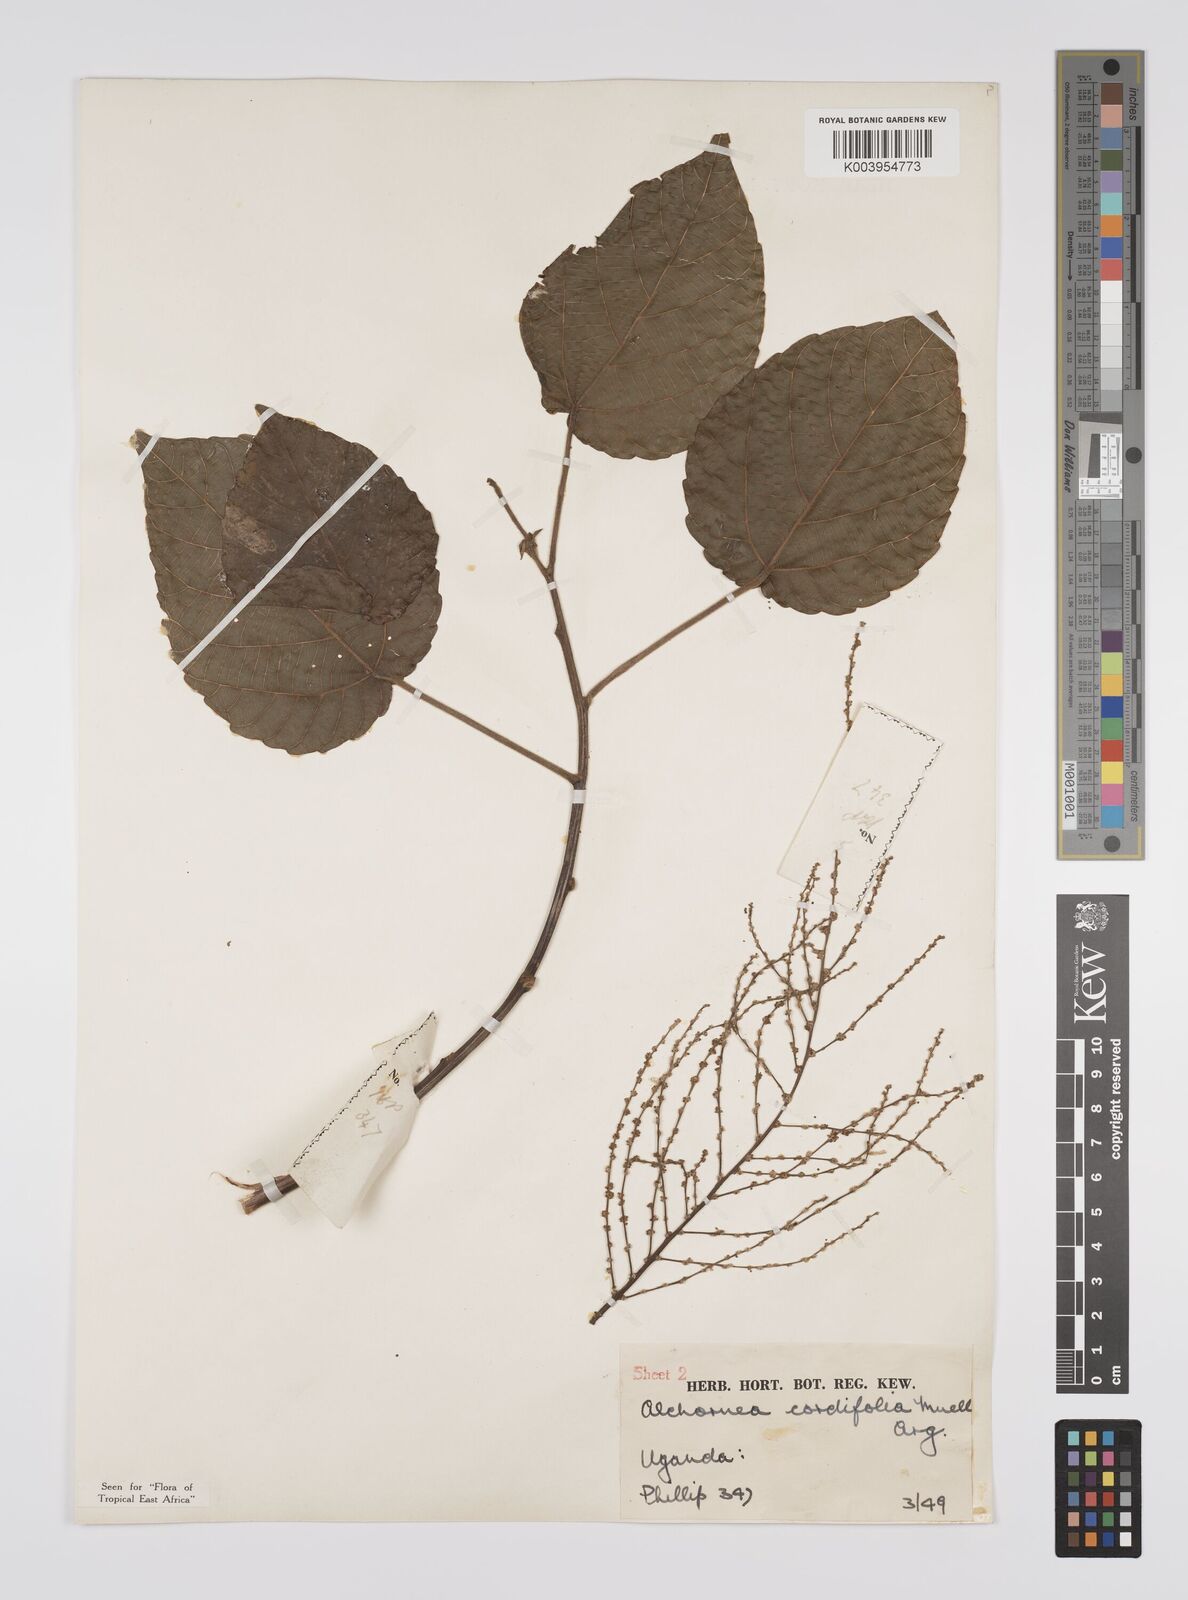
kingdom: Plantae
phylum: Tracheophyta
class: Magnoliopsida
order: Malpighiales
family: Euphorbiaceae
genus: Alchornea
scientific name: Alchornea cordifolia
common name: Christmasbush
